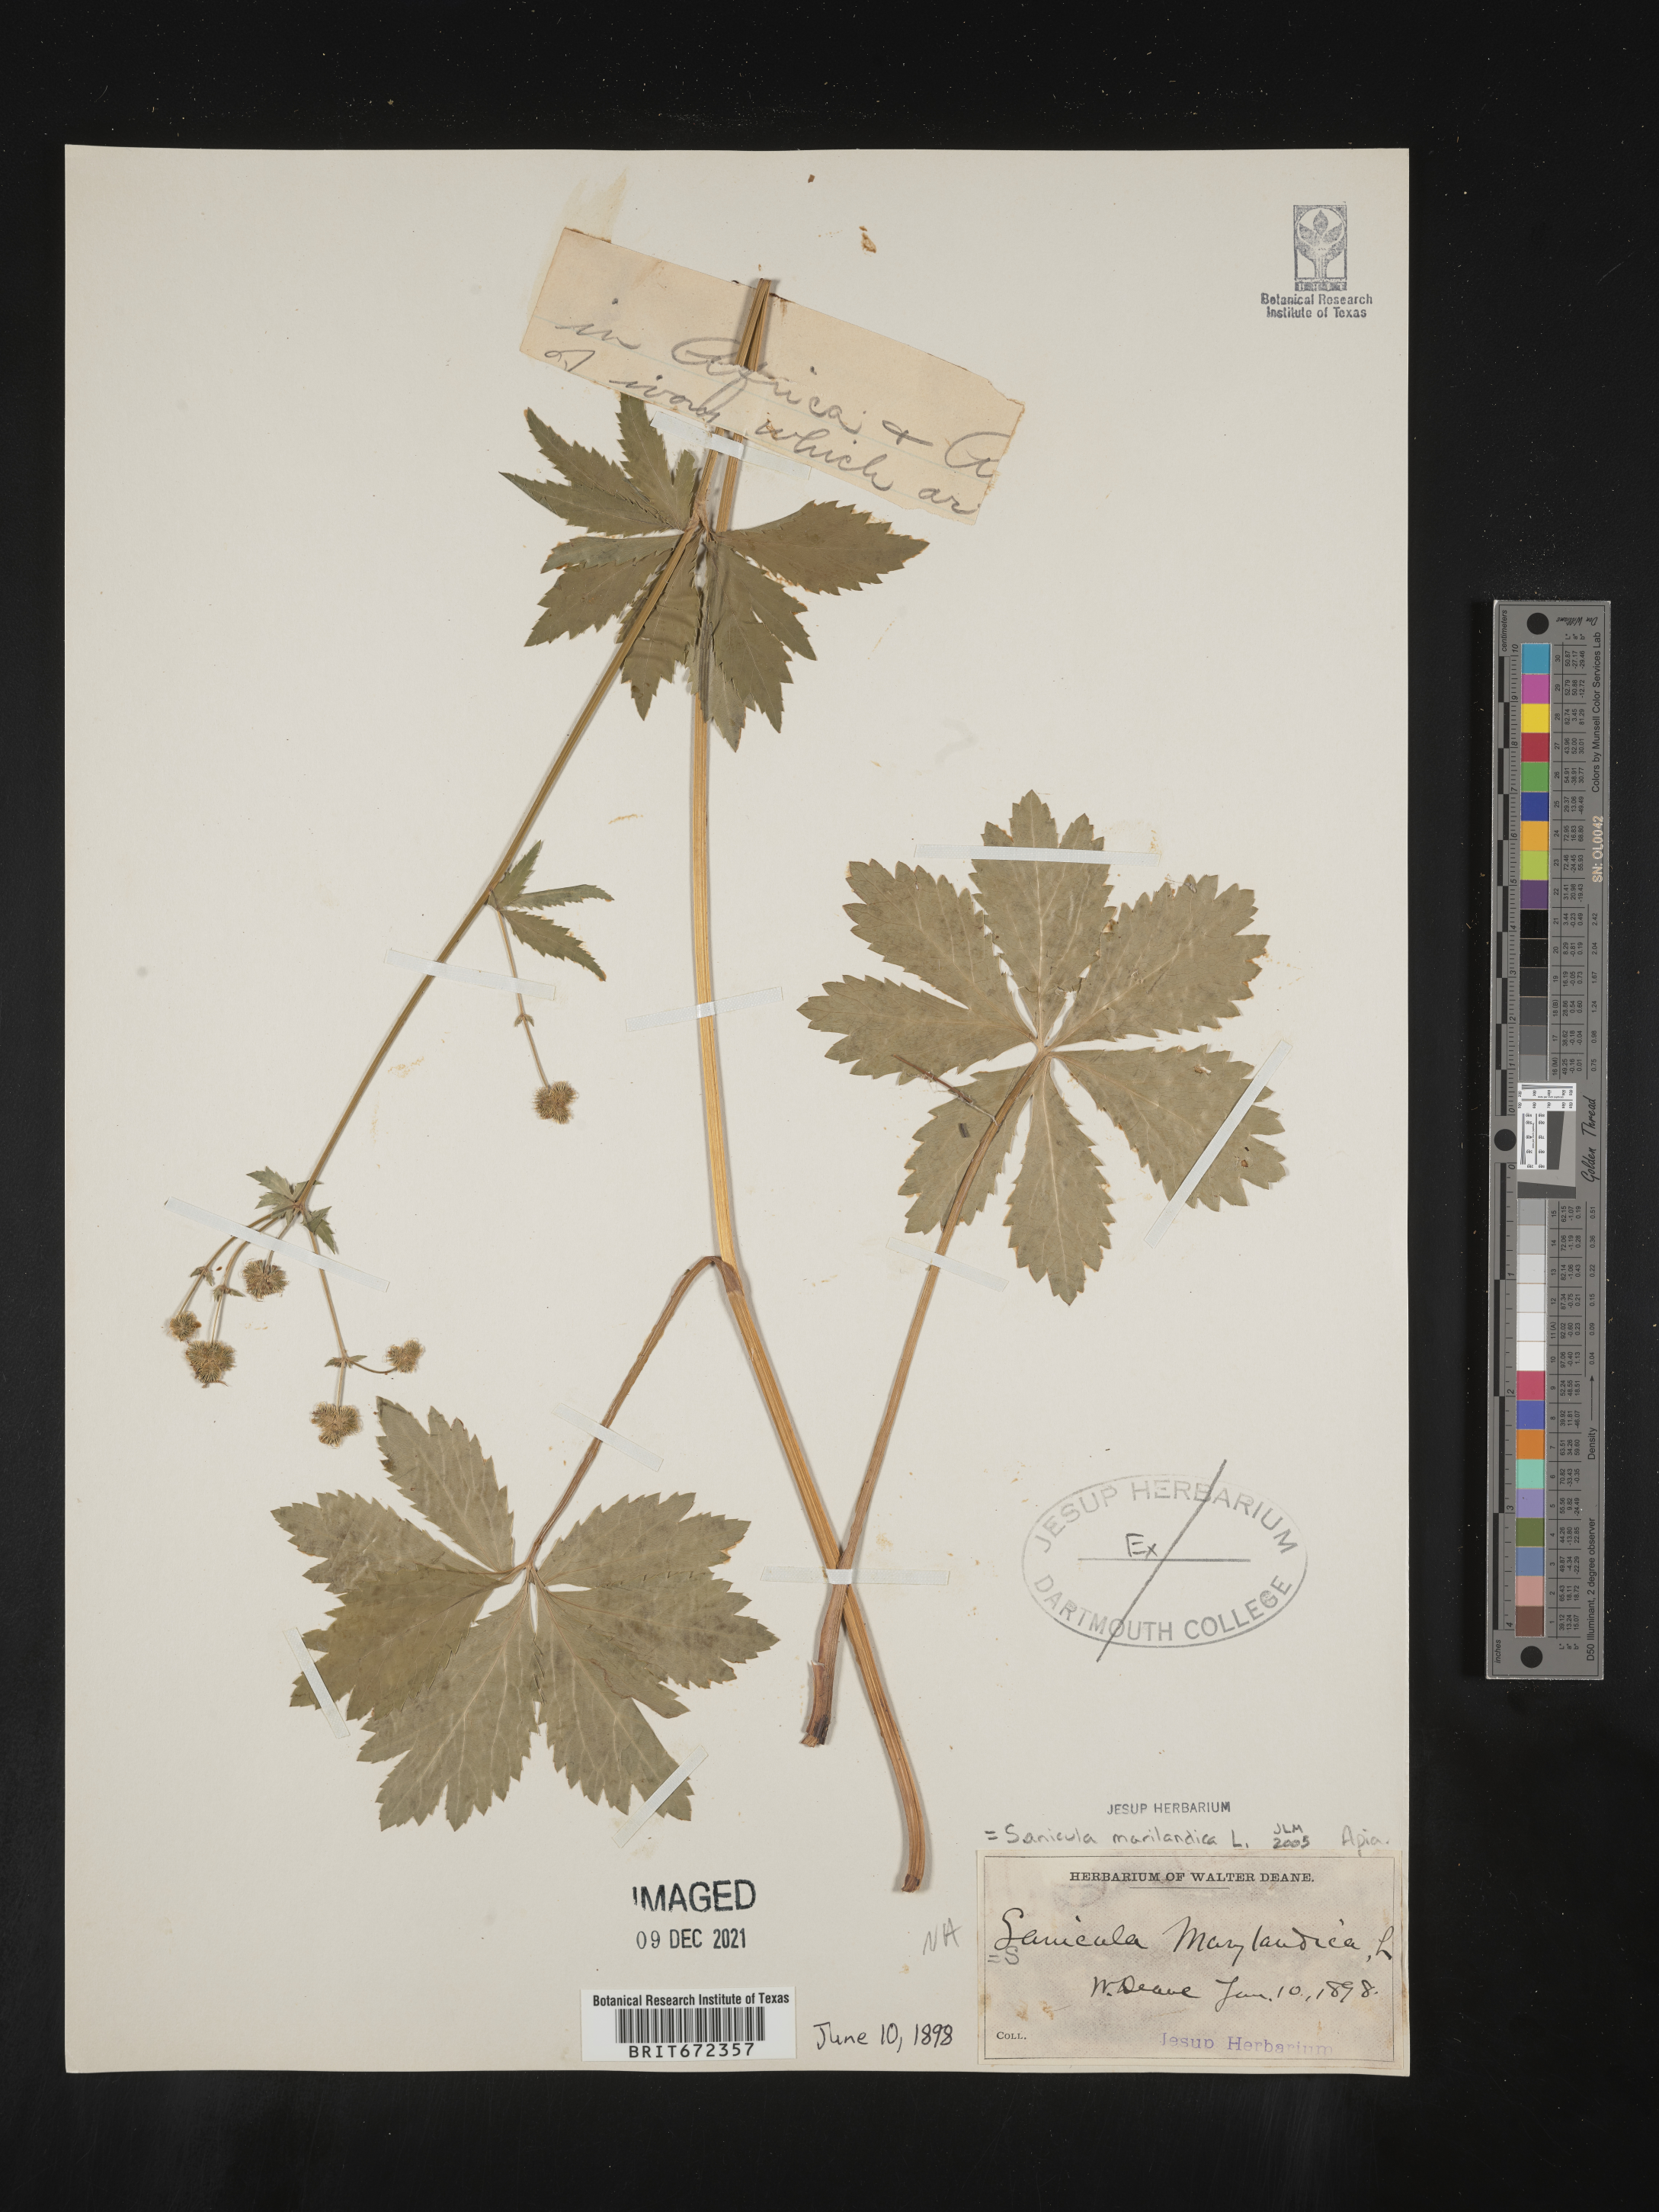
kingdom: Plantae
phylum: Tracheophyta
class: Magnoliopsida
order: Apiales
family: Apiaceae
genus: Sanicula
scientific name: Sanicula marilandica
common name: Black snakeroot
